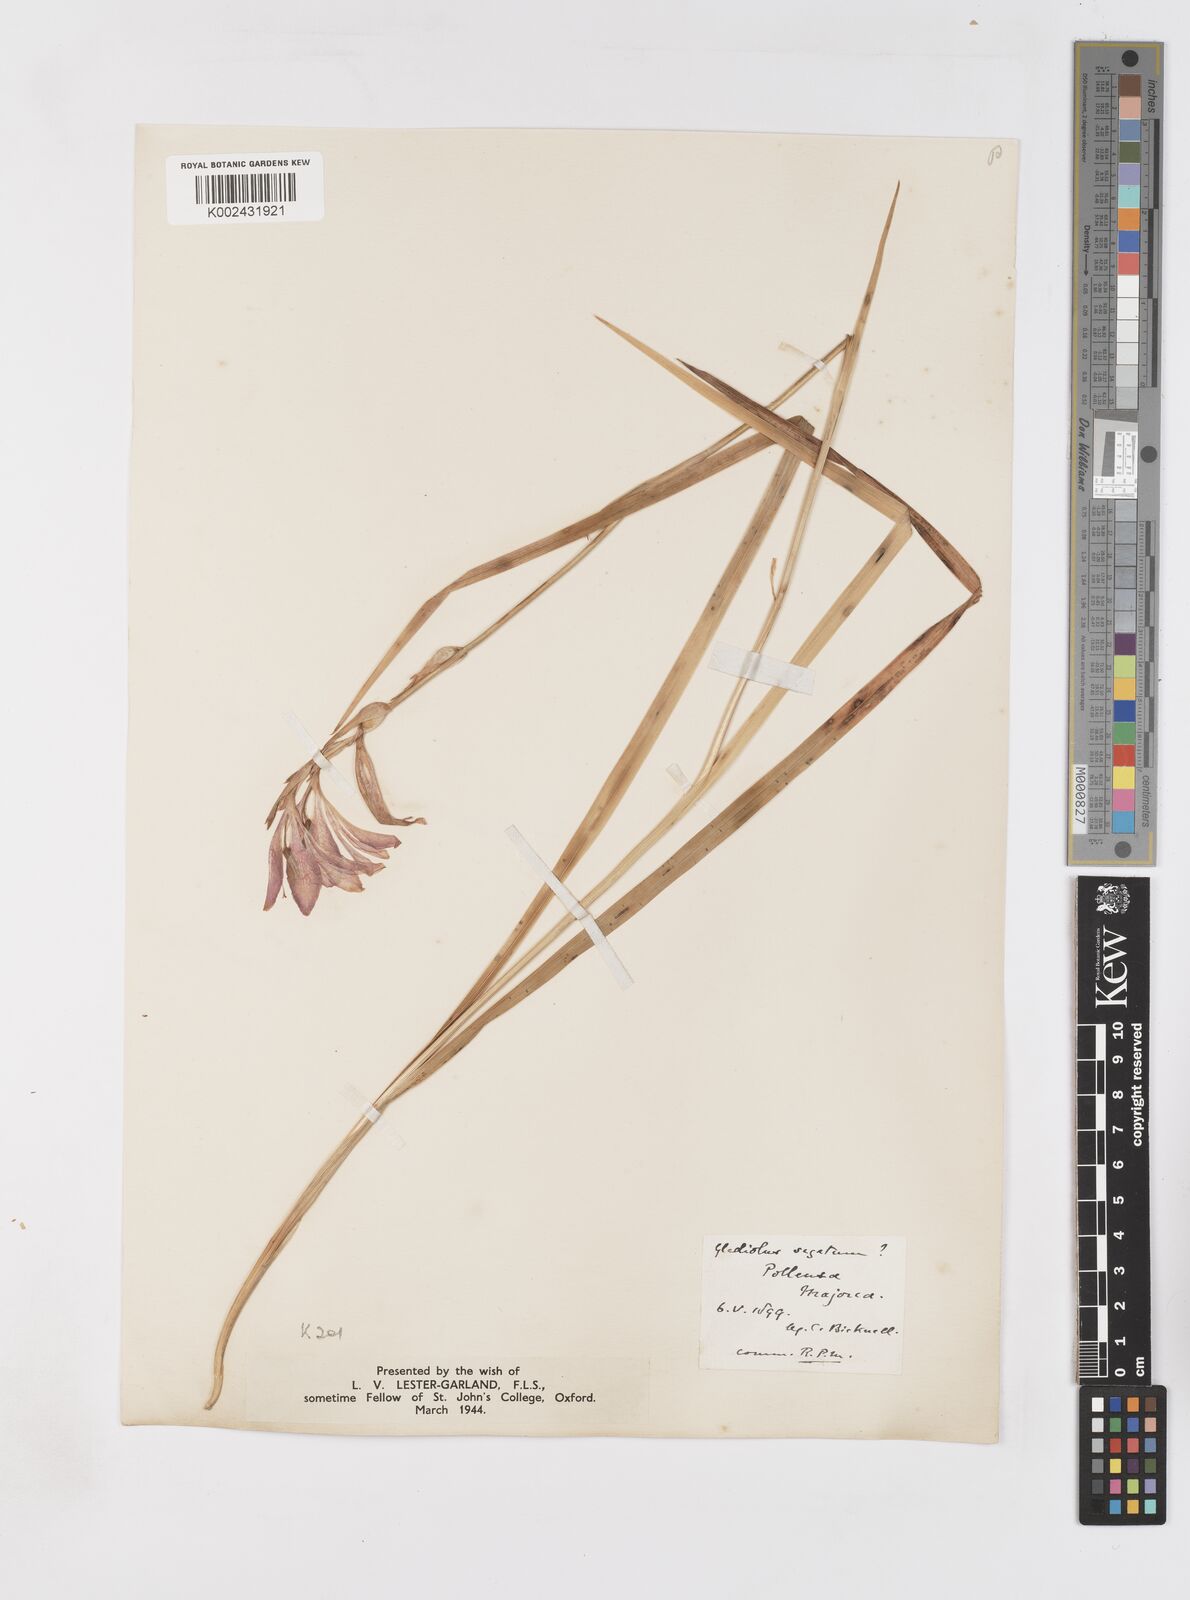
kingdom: Plantae
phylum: Tracheophyta
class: Liliopsida
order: Asparagales
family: Iridaceae
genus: Gladiolus
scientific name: Gladiolus italicus
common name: Field gladiolus
